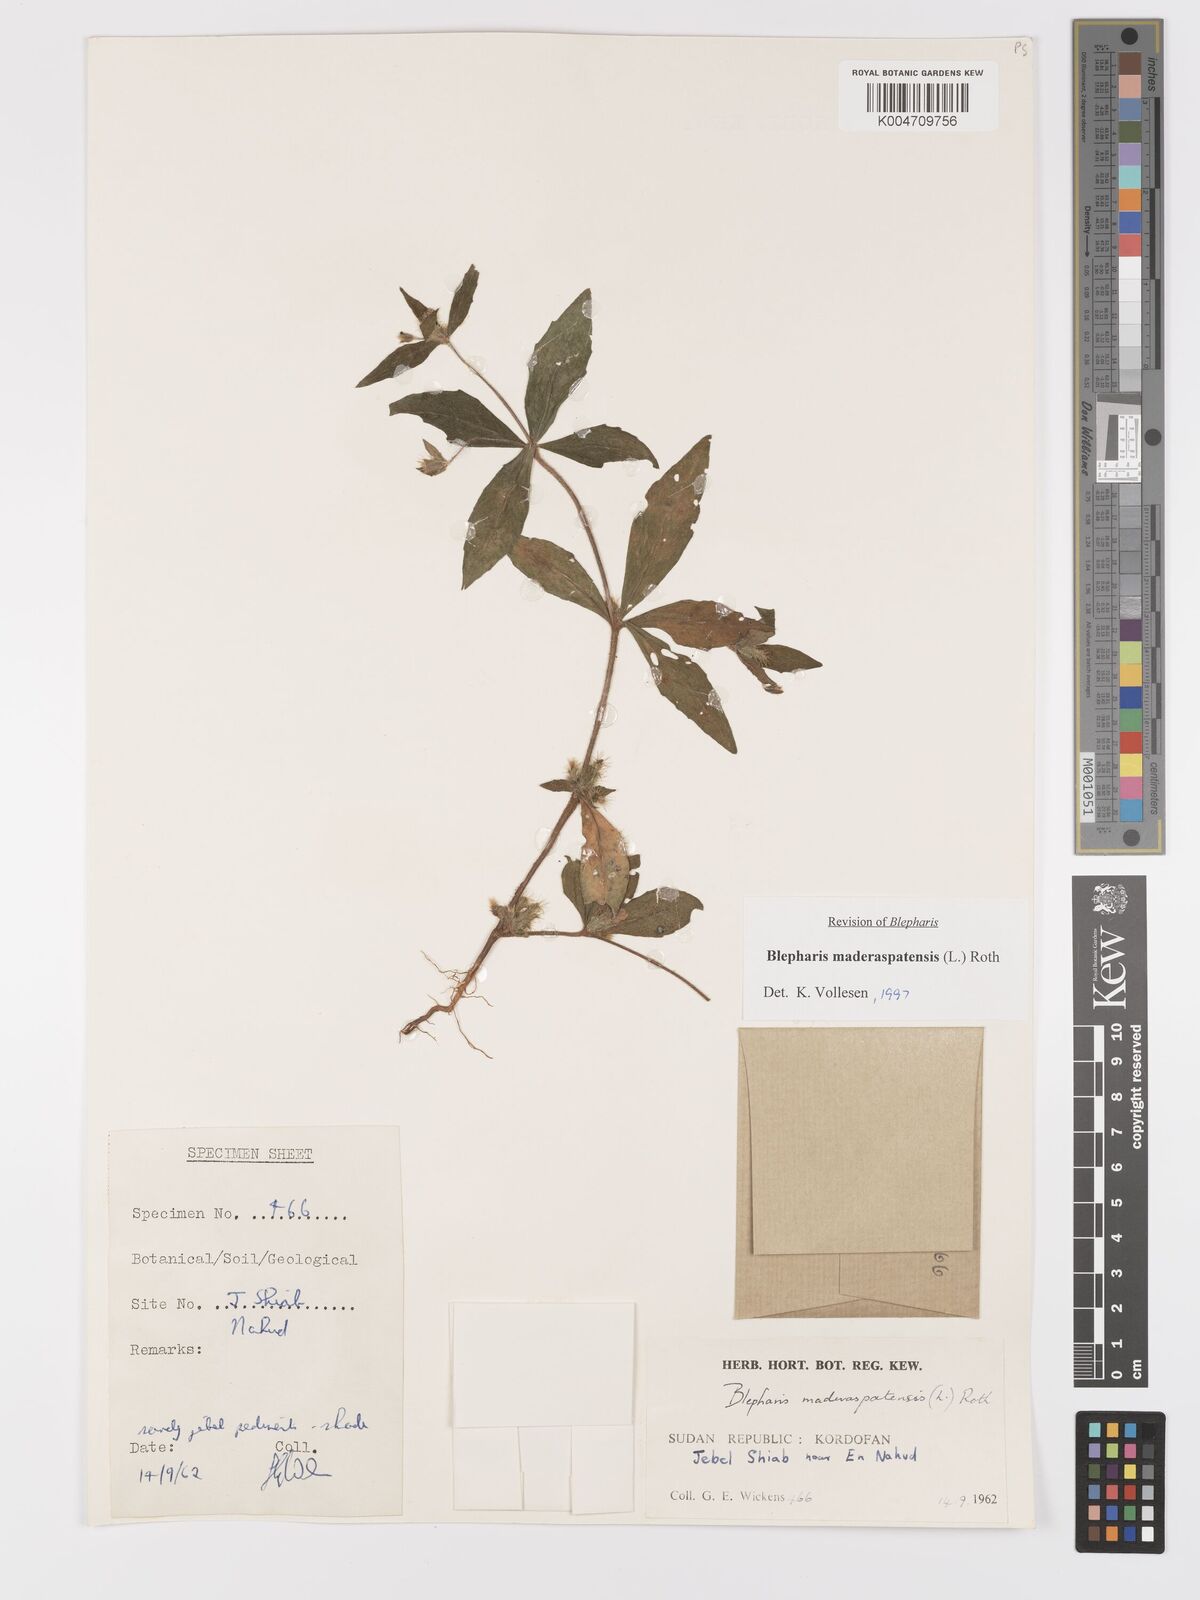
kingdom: Plantae
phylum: Tracheophyta
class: Magnoliopsida
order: Lamiales
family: Acanthaceae
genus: Blepharis
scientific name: Blepharis maderaspatensis
